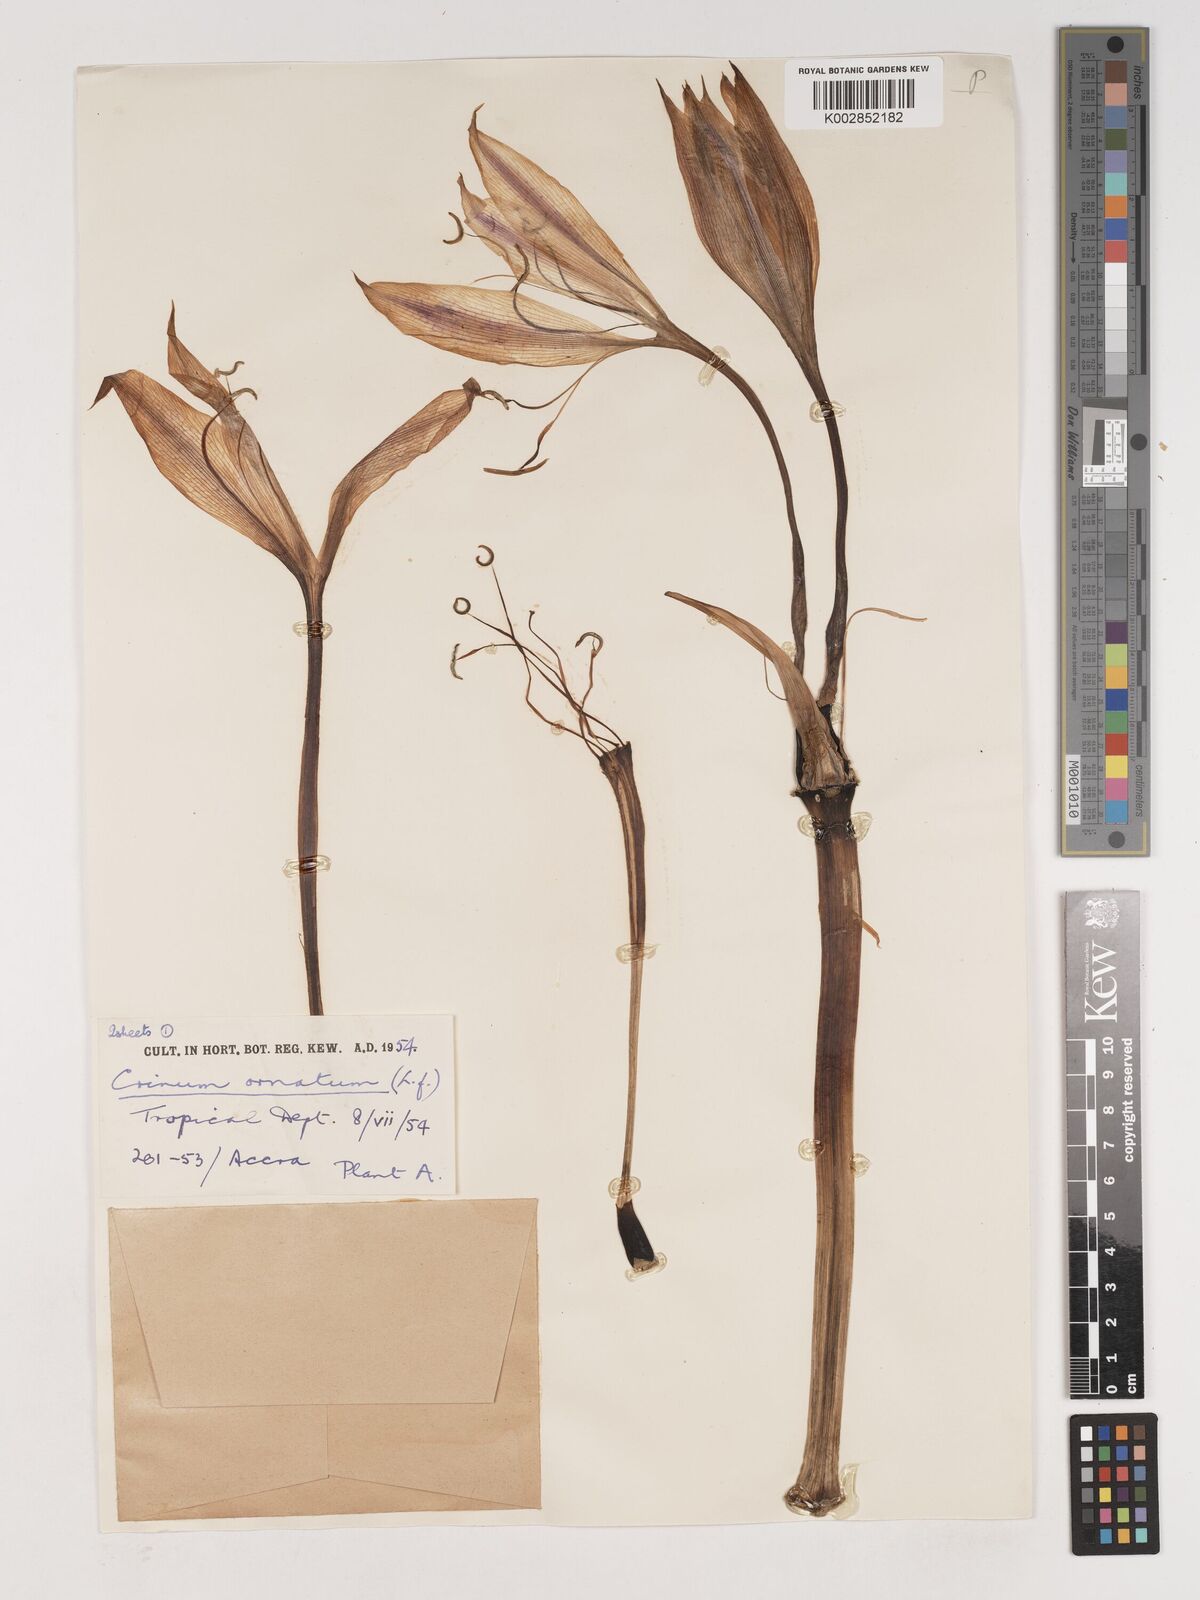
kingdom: Plantae
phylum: Tracheophyta
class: Liliopsida
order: Asparagales
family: Amaryllidaceae
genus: Crinum
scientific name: Crinum ornatum
